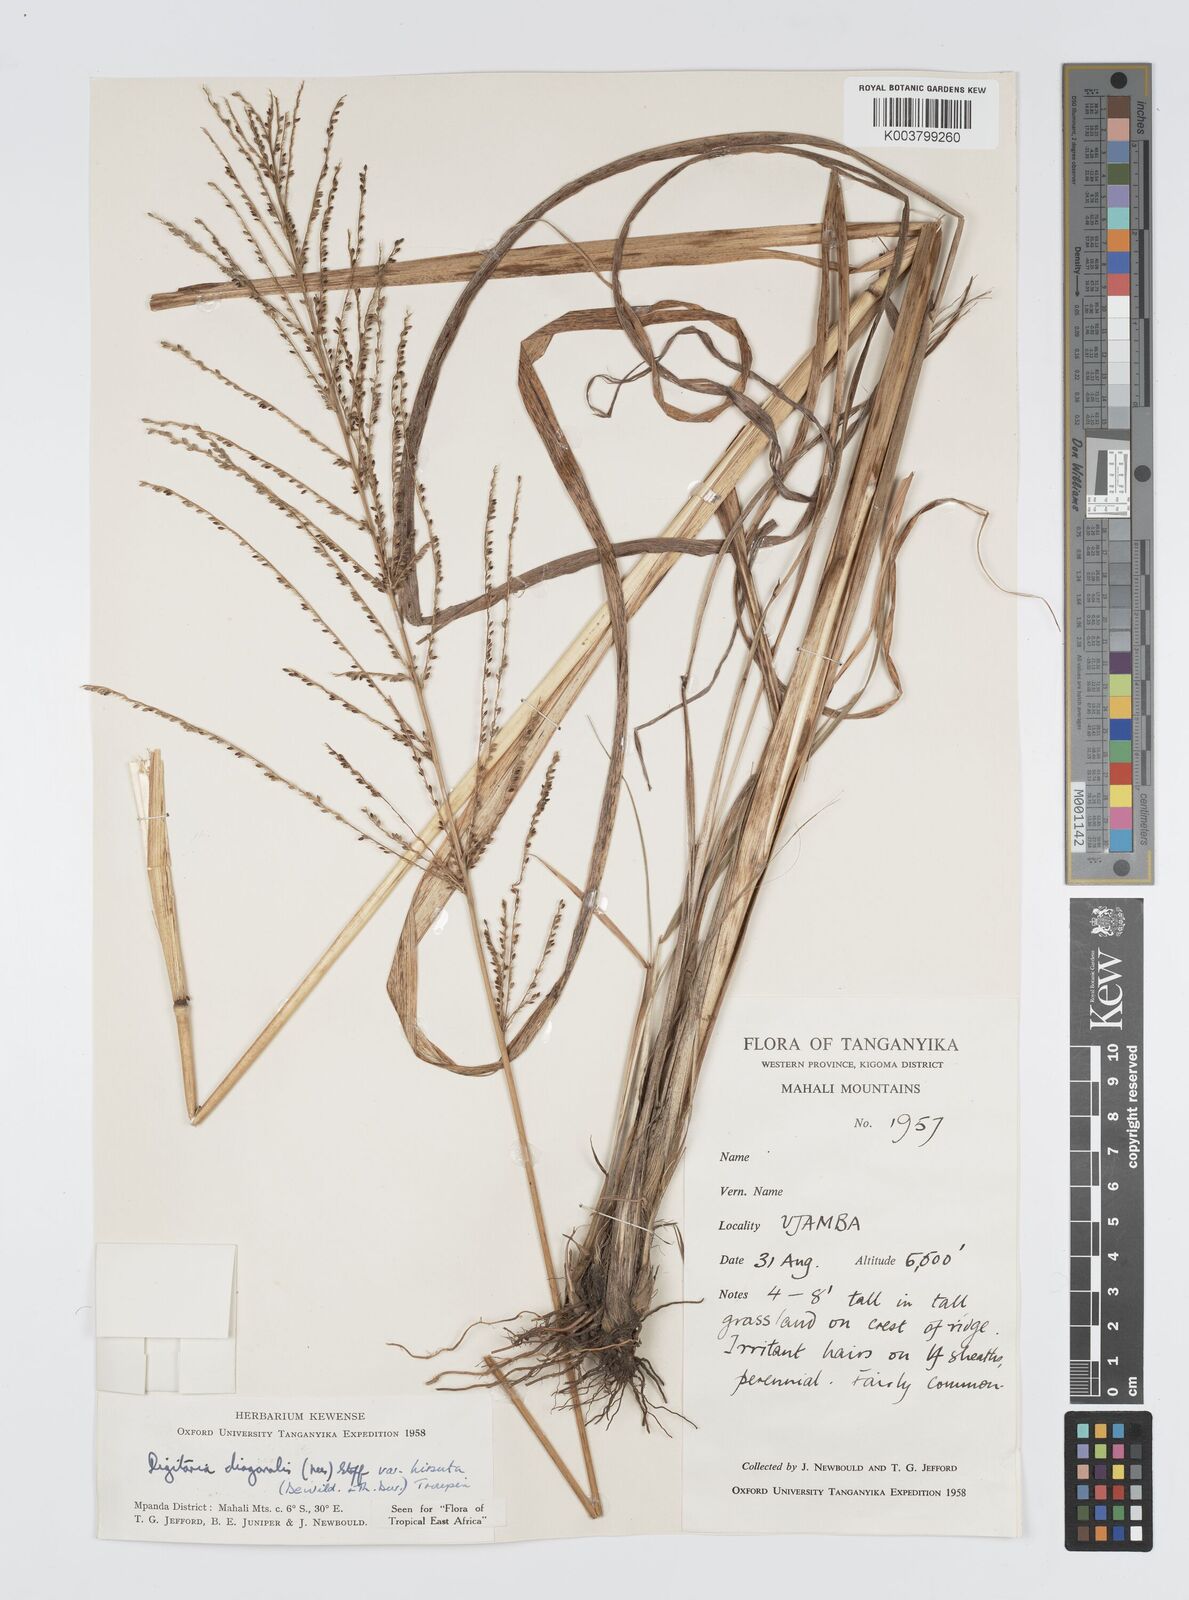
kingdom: Plantae
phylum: Tracheophyta
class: Liliopsida
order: Poales
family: Poaceae
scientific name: Poaceae
